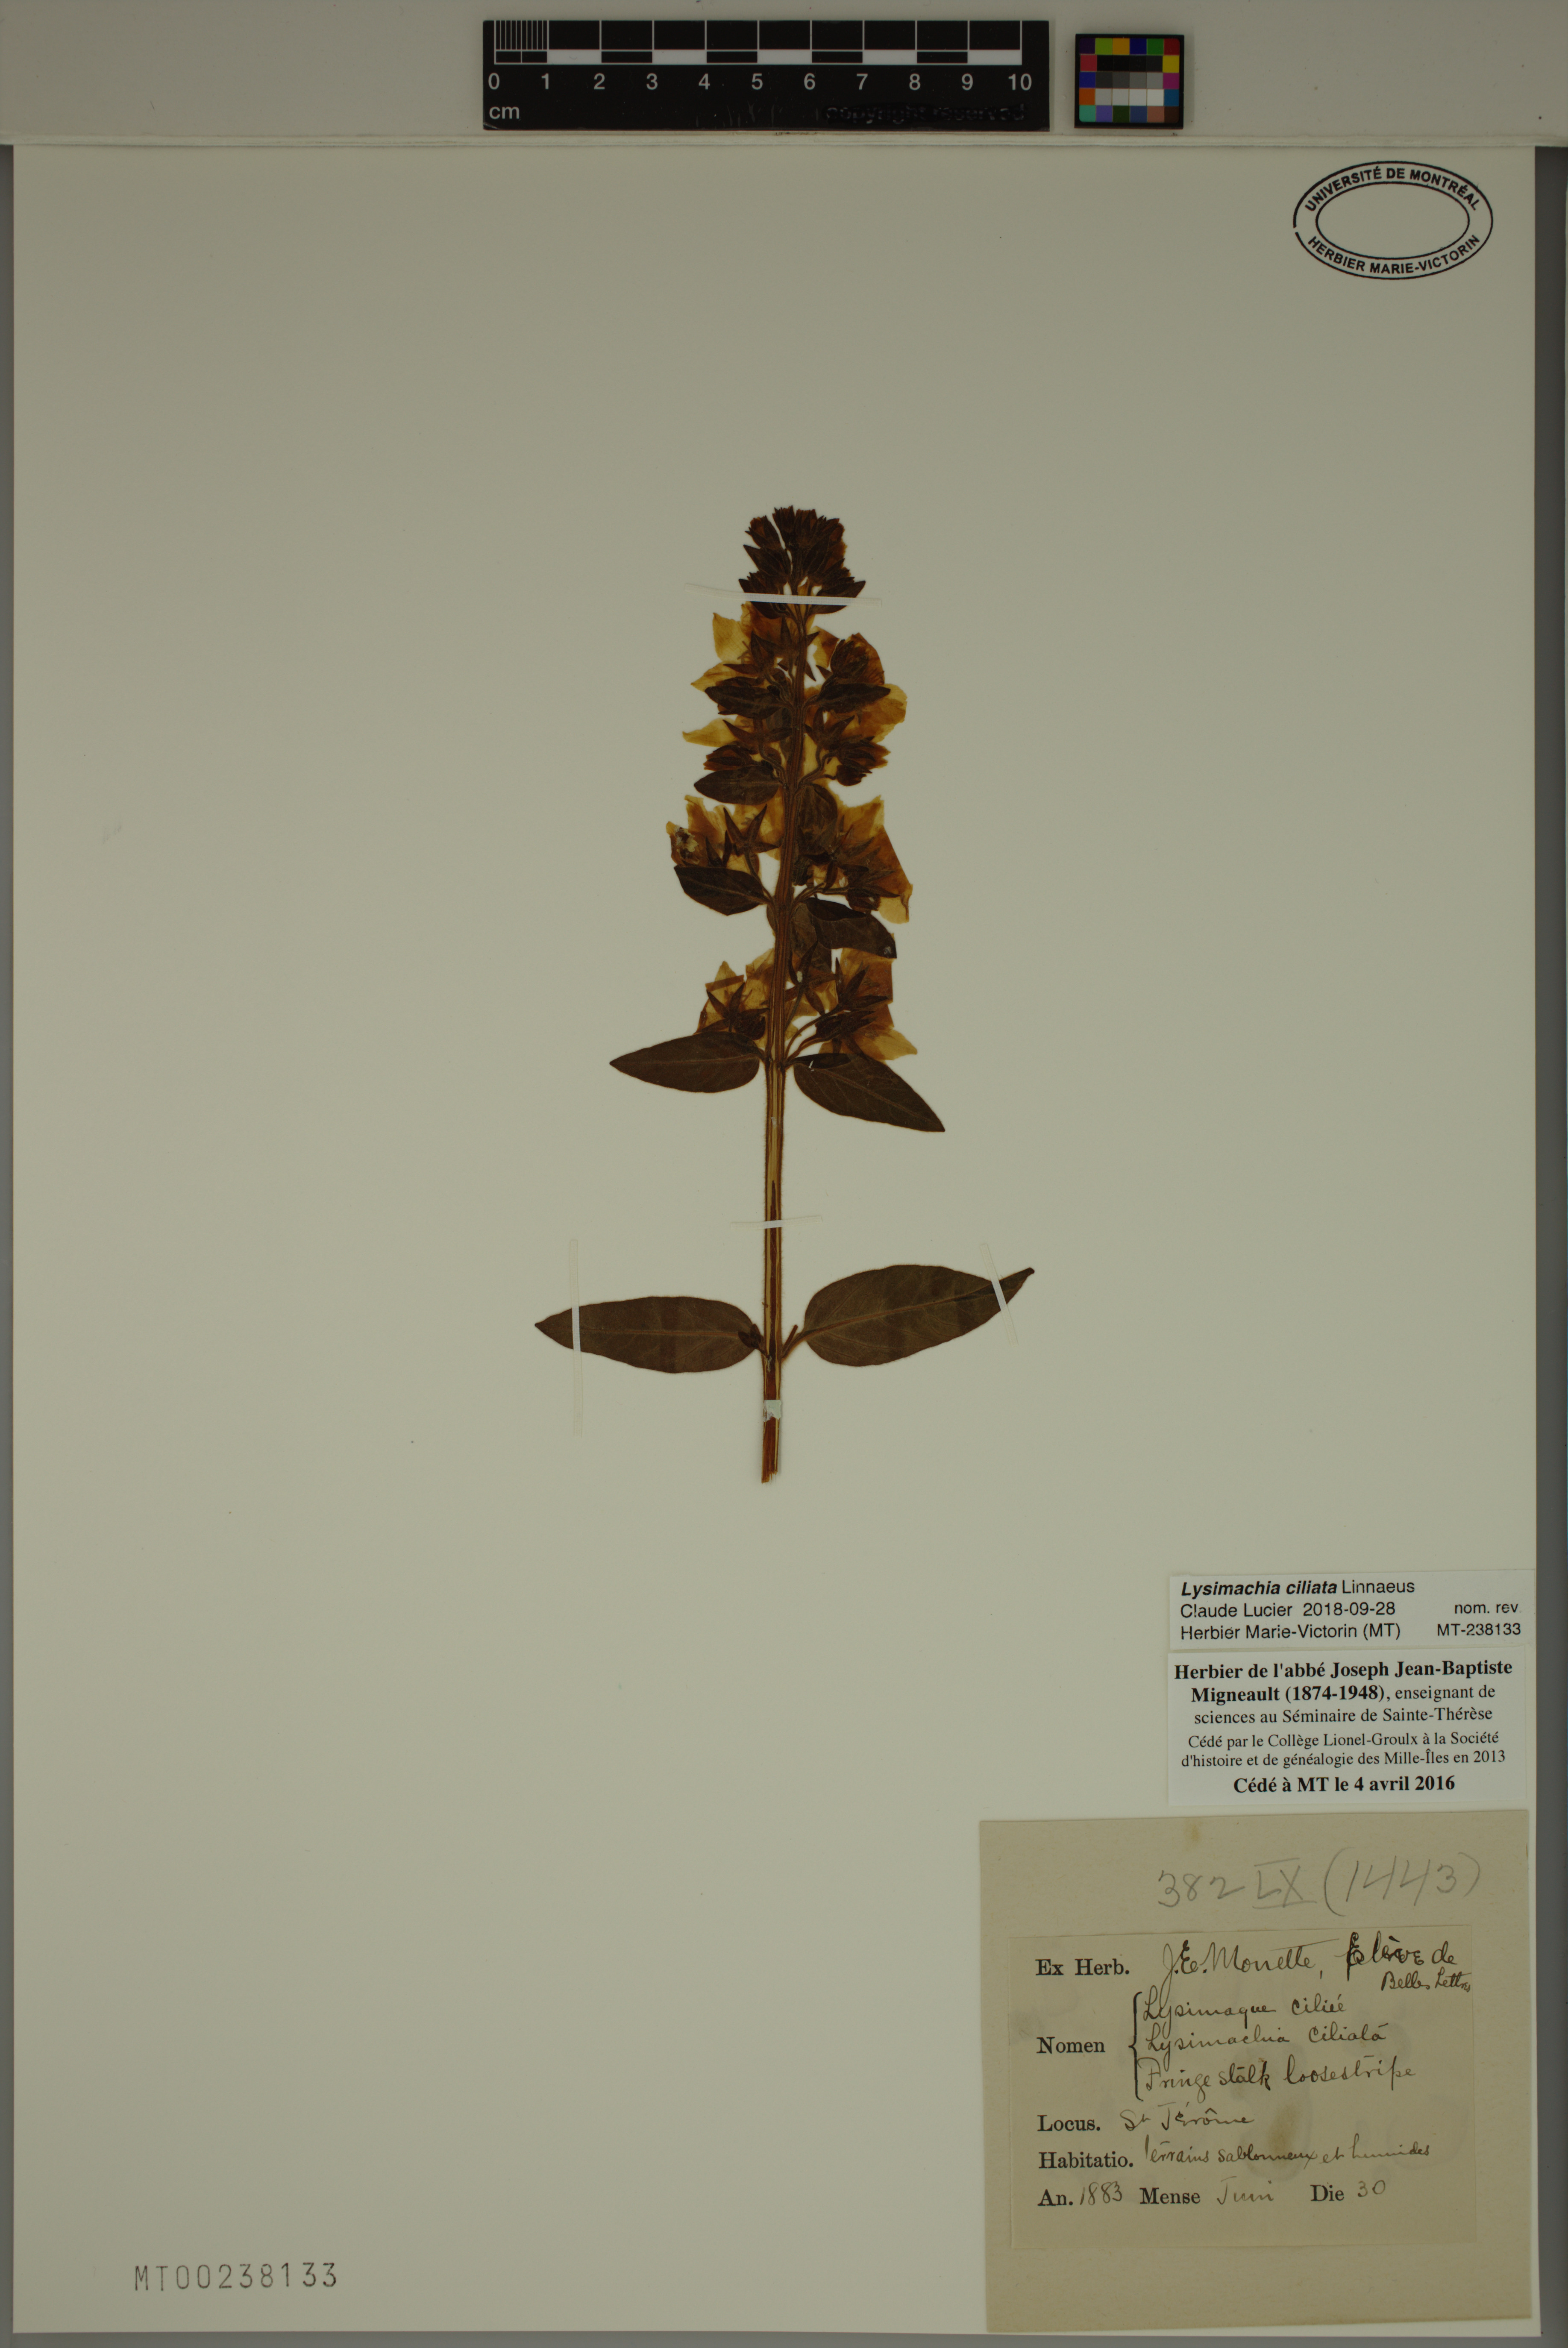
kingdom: Plantae
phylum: Tracheophyta
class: Magnoliopsida
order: Ericales
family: Primulaceae
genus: Lysimachia
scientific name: Lysimachia ciliata
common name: Fringed loosestrife
